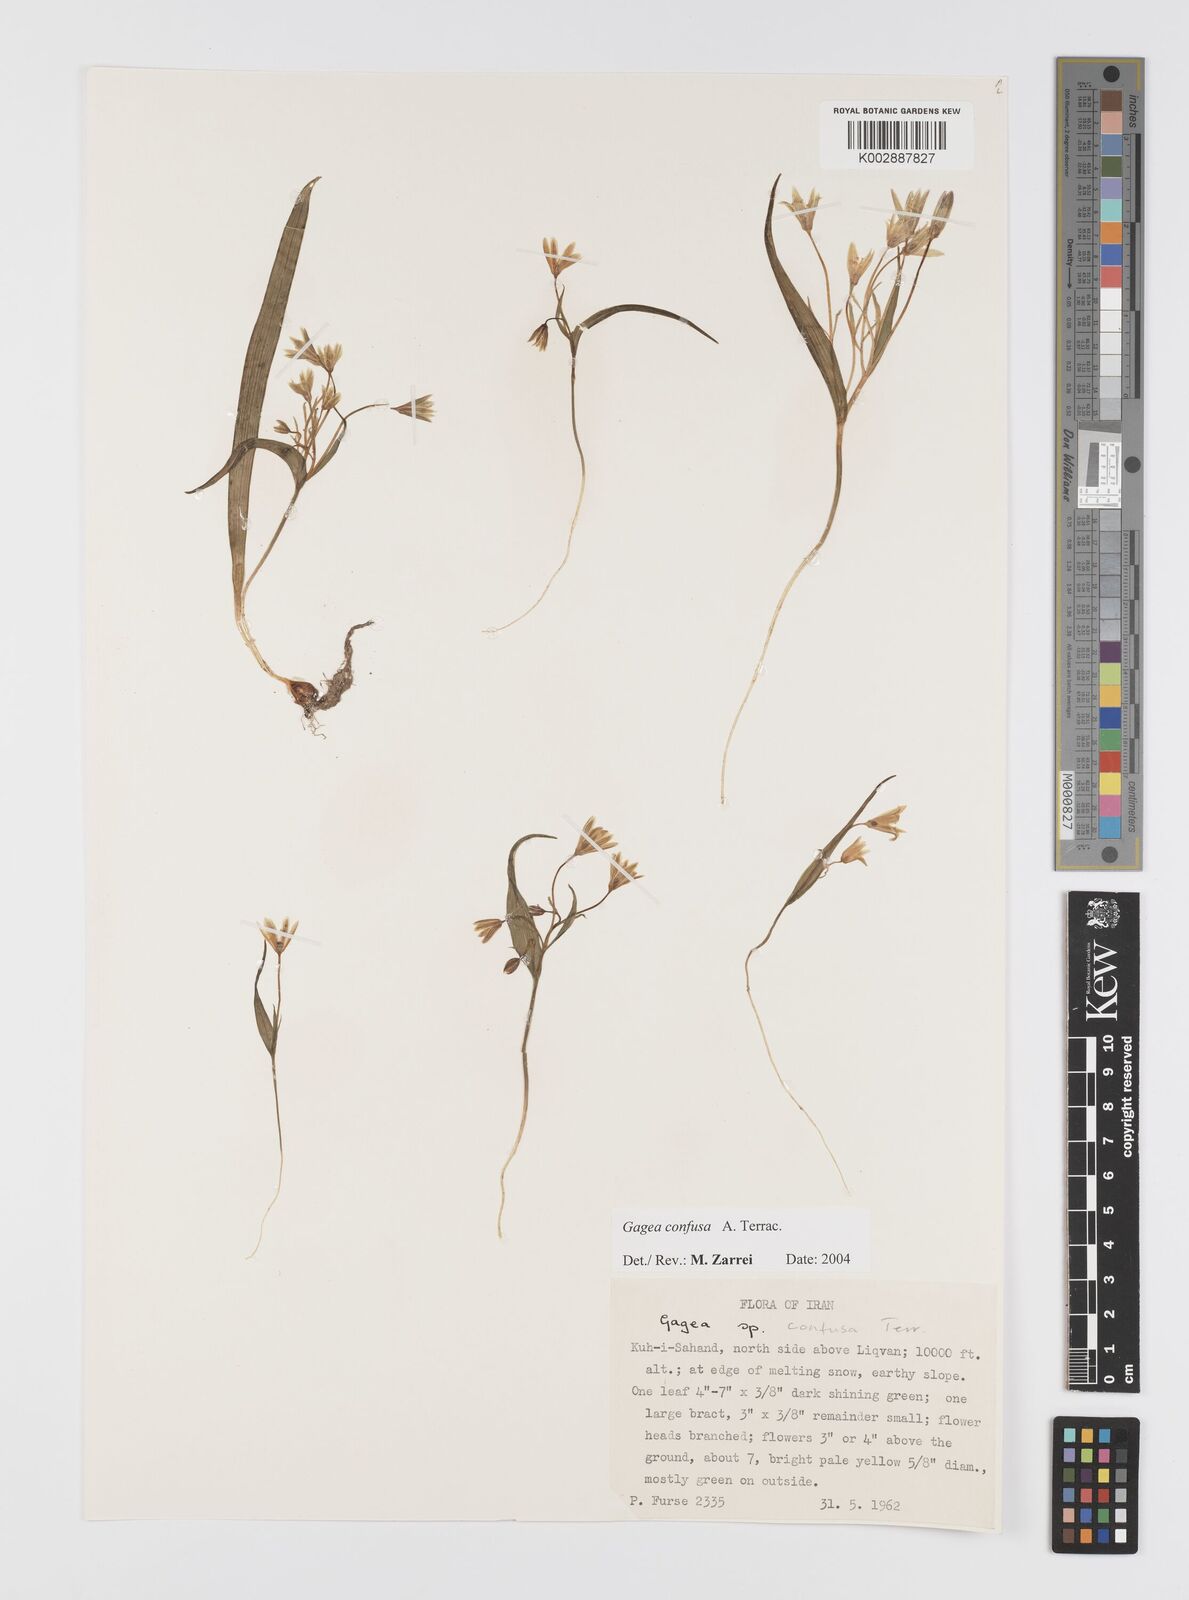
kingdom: Plantae
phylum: Tracheophyta
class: Liliopsida
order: Liliales
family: Liliaceae
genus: Gagea
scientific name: Gagea confusa
